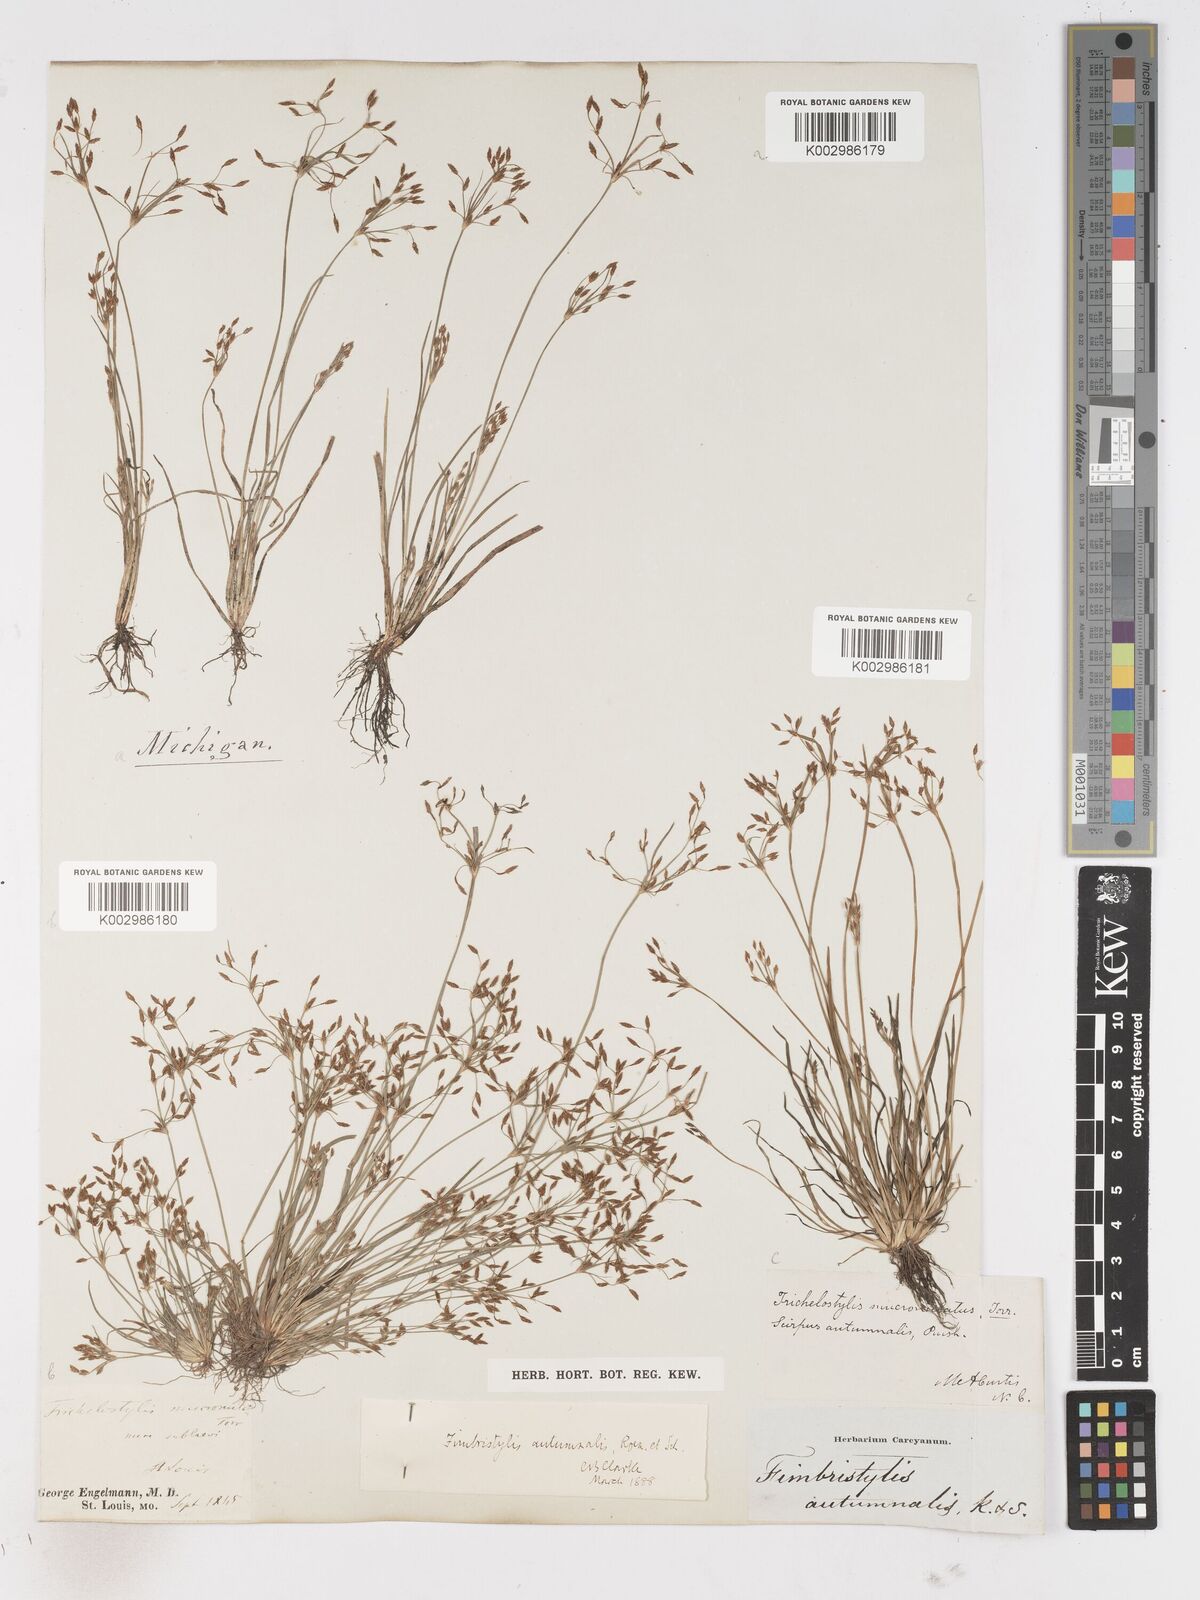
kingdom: Plantae
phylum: Tracheophyta
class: Liliopsida
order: Poales
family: Cyperaceae
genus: Fimbristylis
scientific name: Fimbristylis autumnalis
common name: Slender fimbristylis
